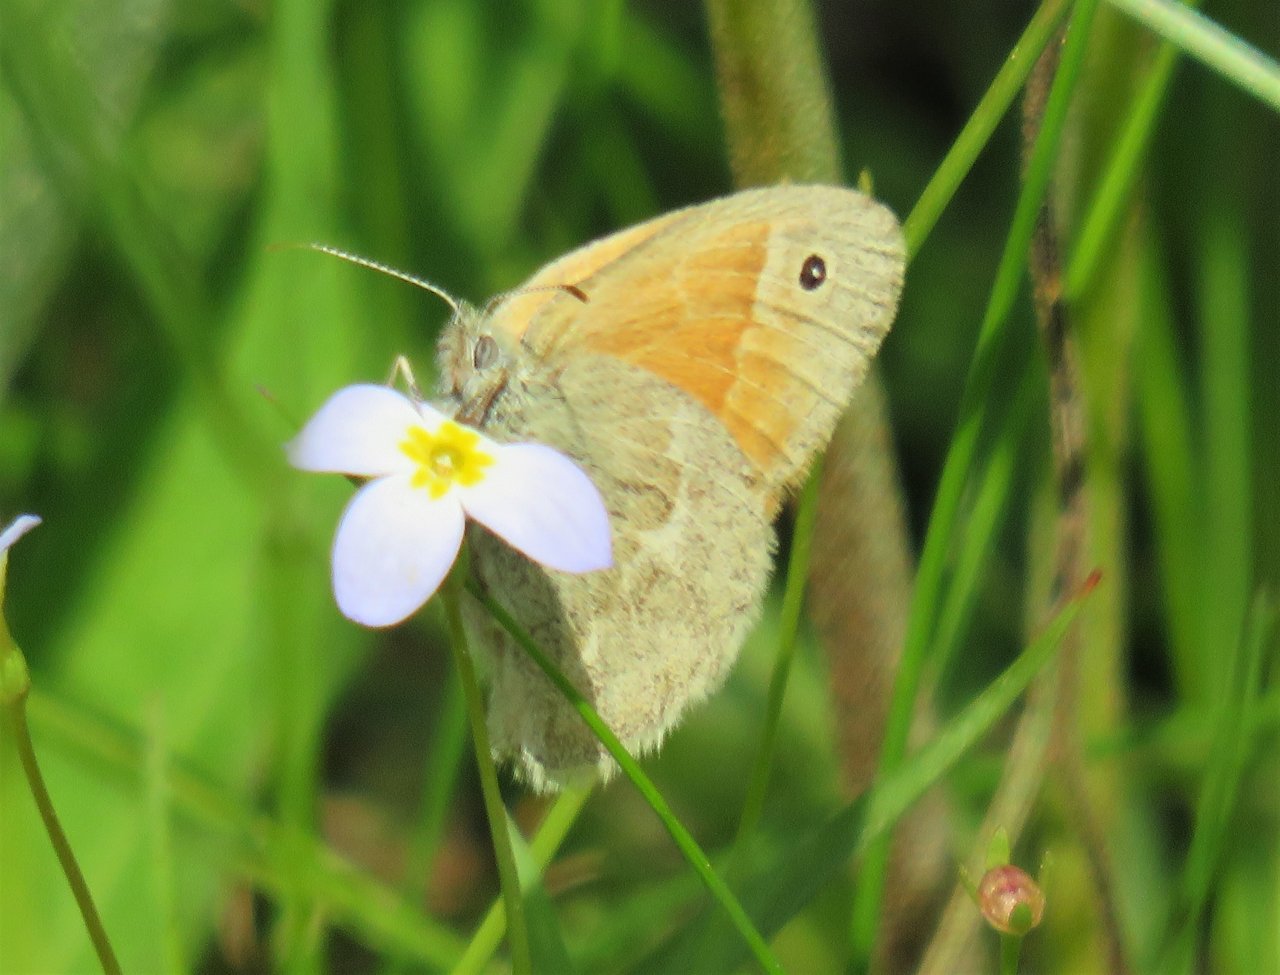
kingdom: Animalia
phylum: Arthropoda
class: Insecta
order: Lepidoptera
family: Nymphalidae
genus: Coenonympha
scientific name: Coenonympha tullia
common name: Large Heath
